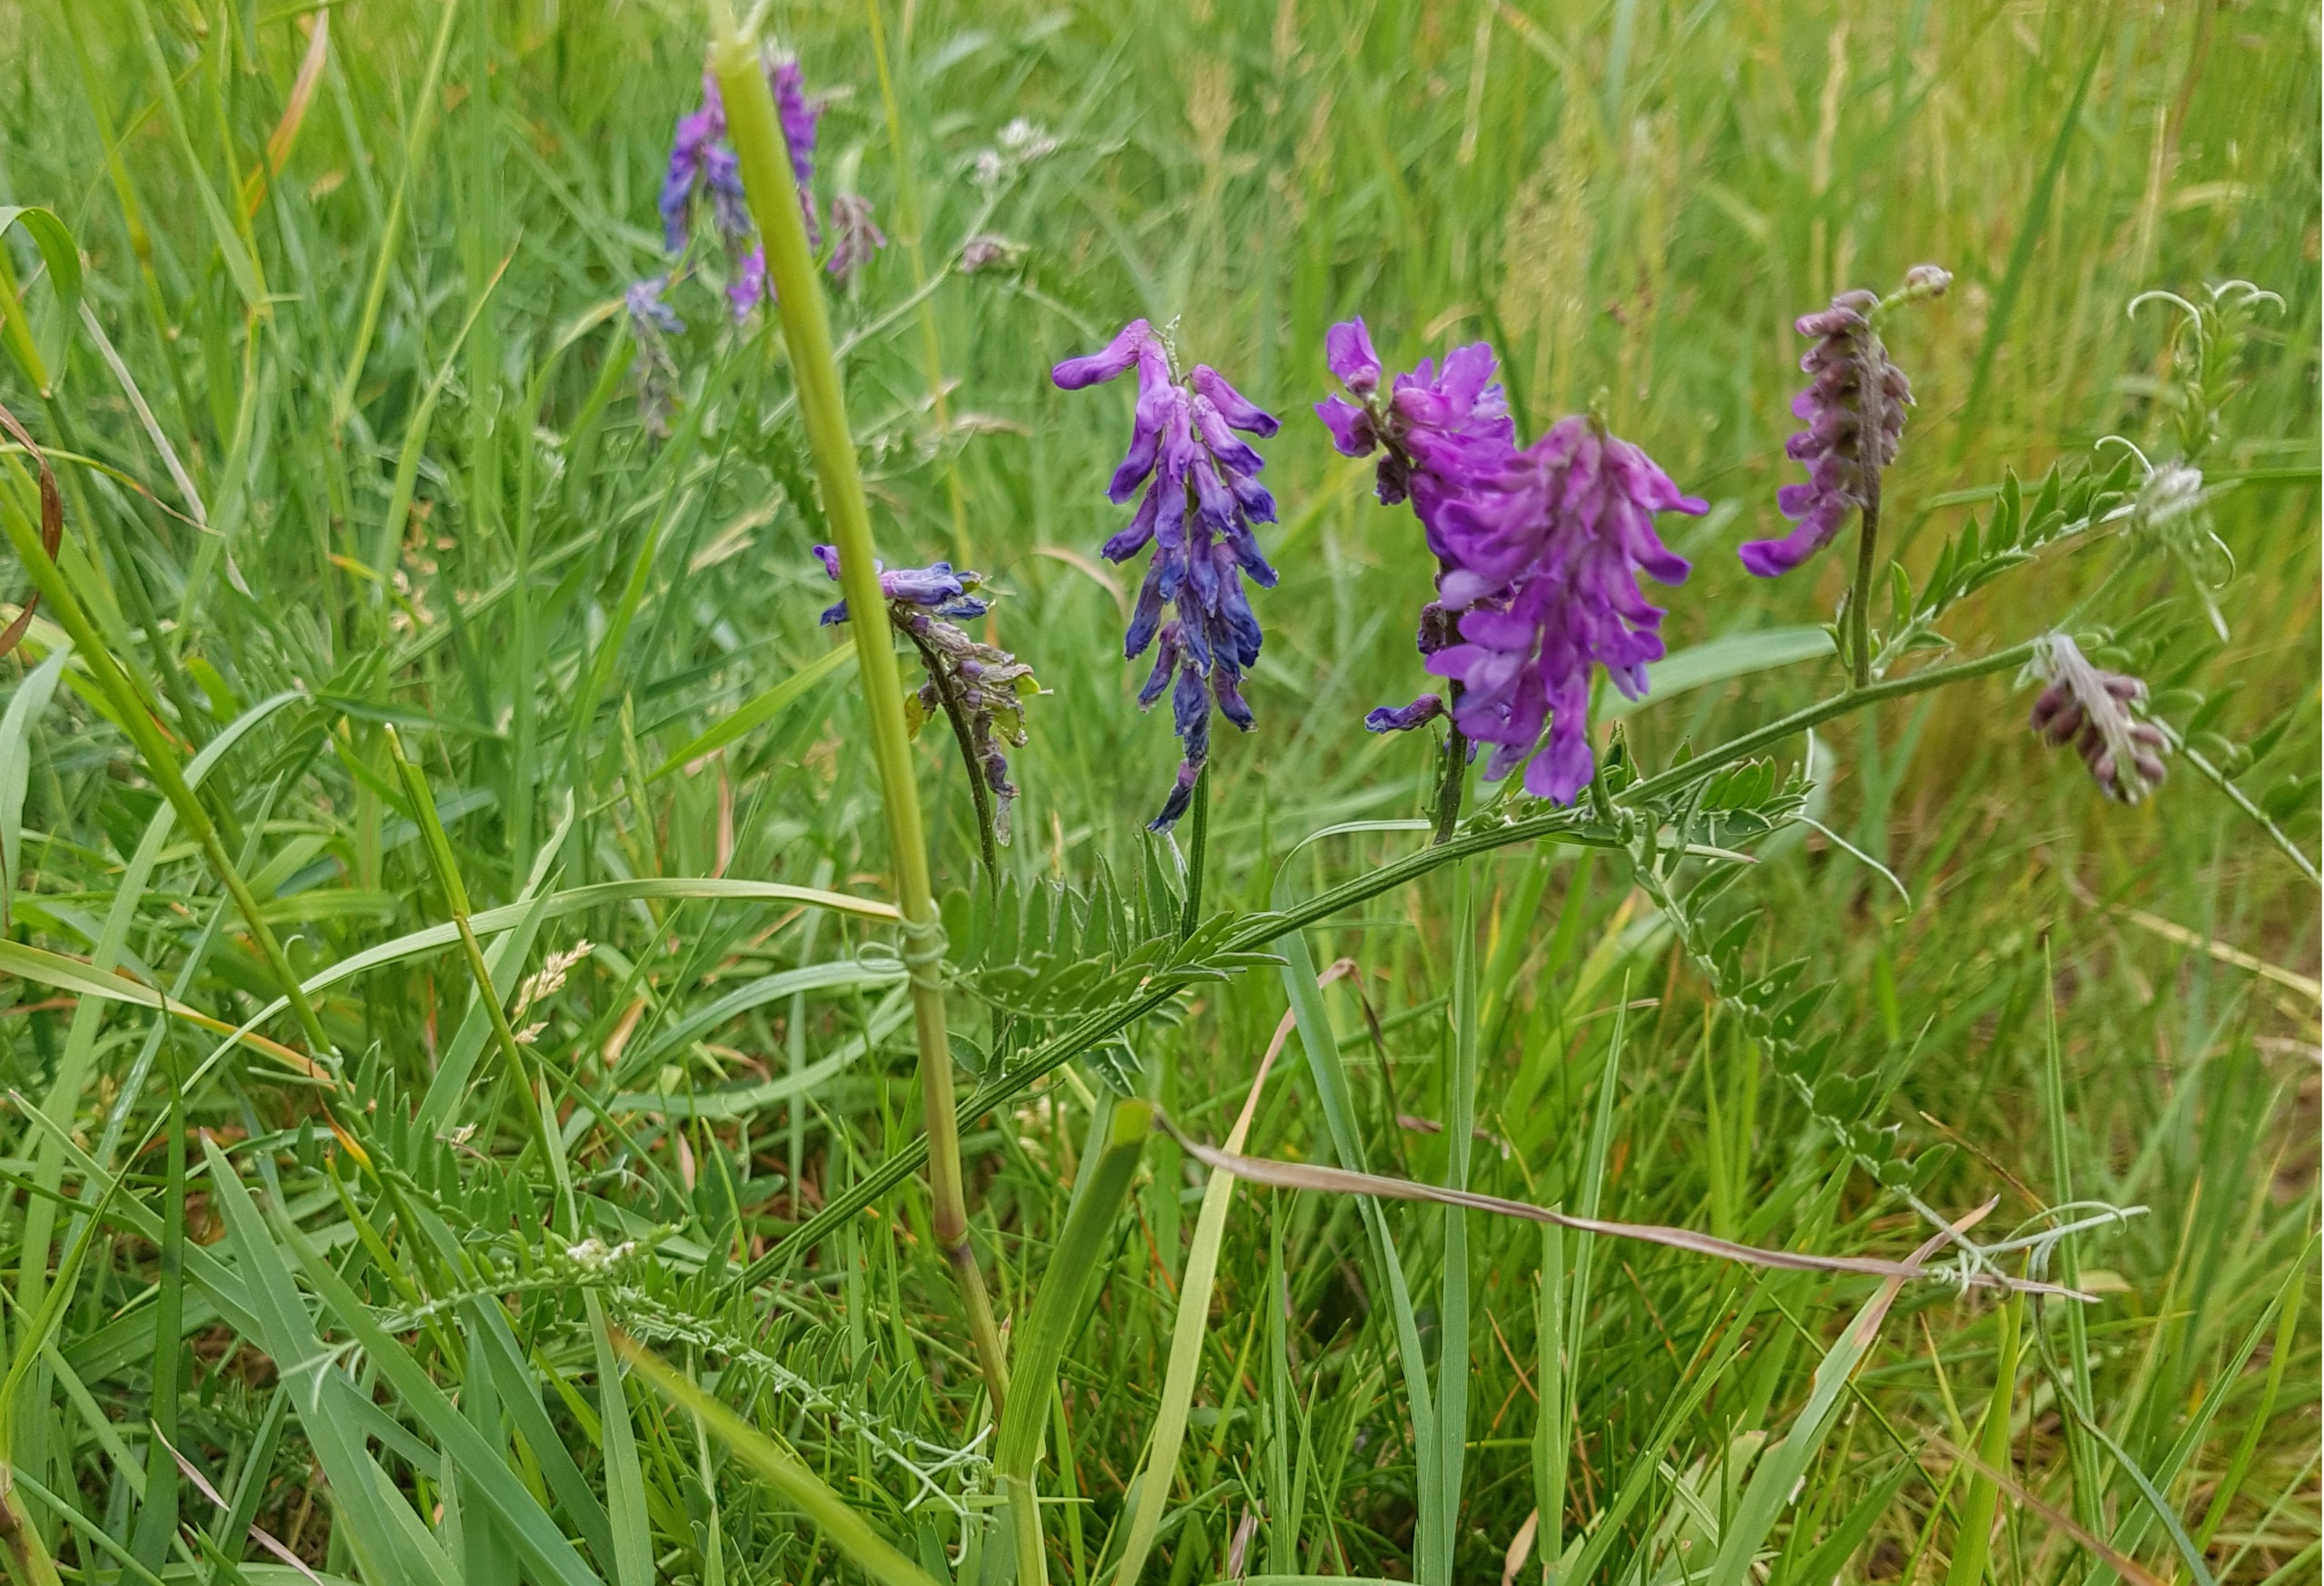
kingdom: Plantae
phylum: Tracheophyta
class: Magnoliopsida
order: Fabales
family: Fabaceae
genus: Vicia
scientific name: Vicia cracca
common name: Muse-vikke
